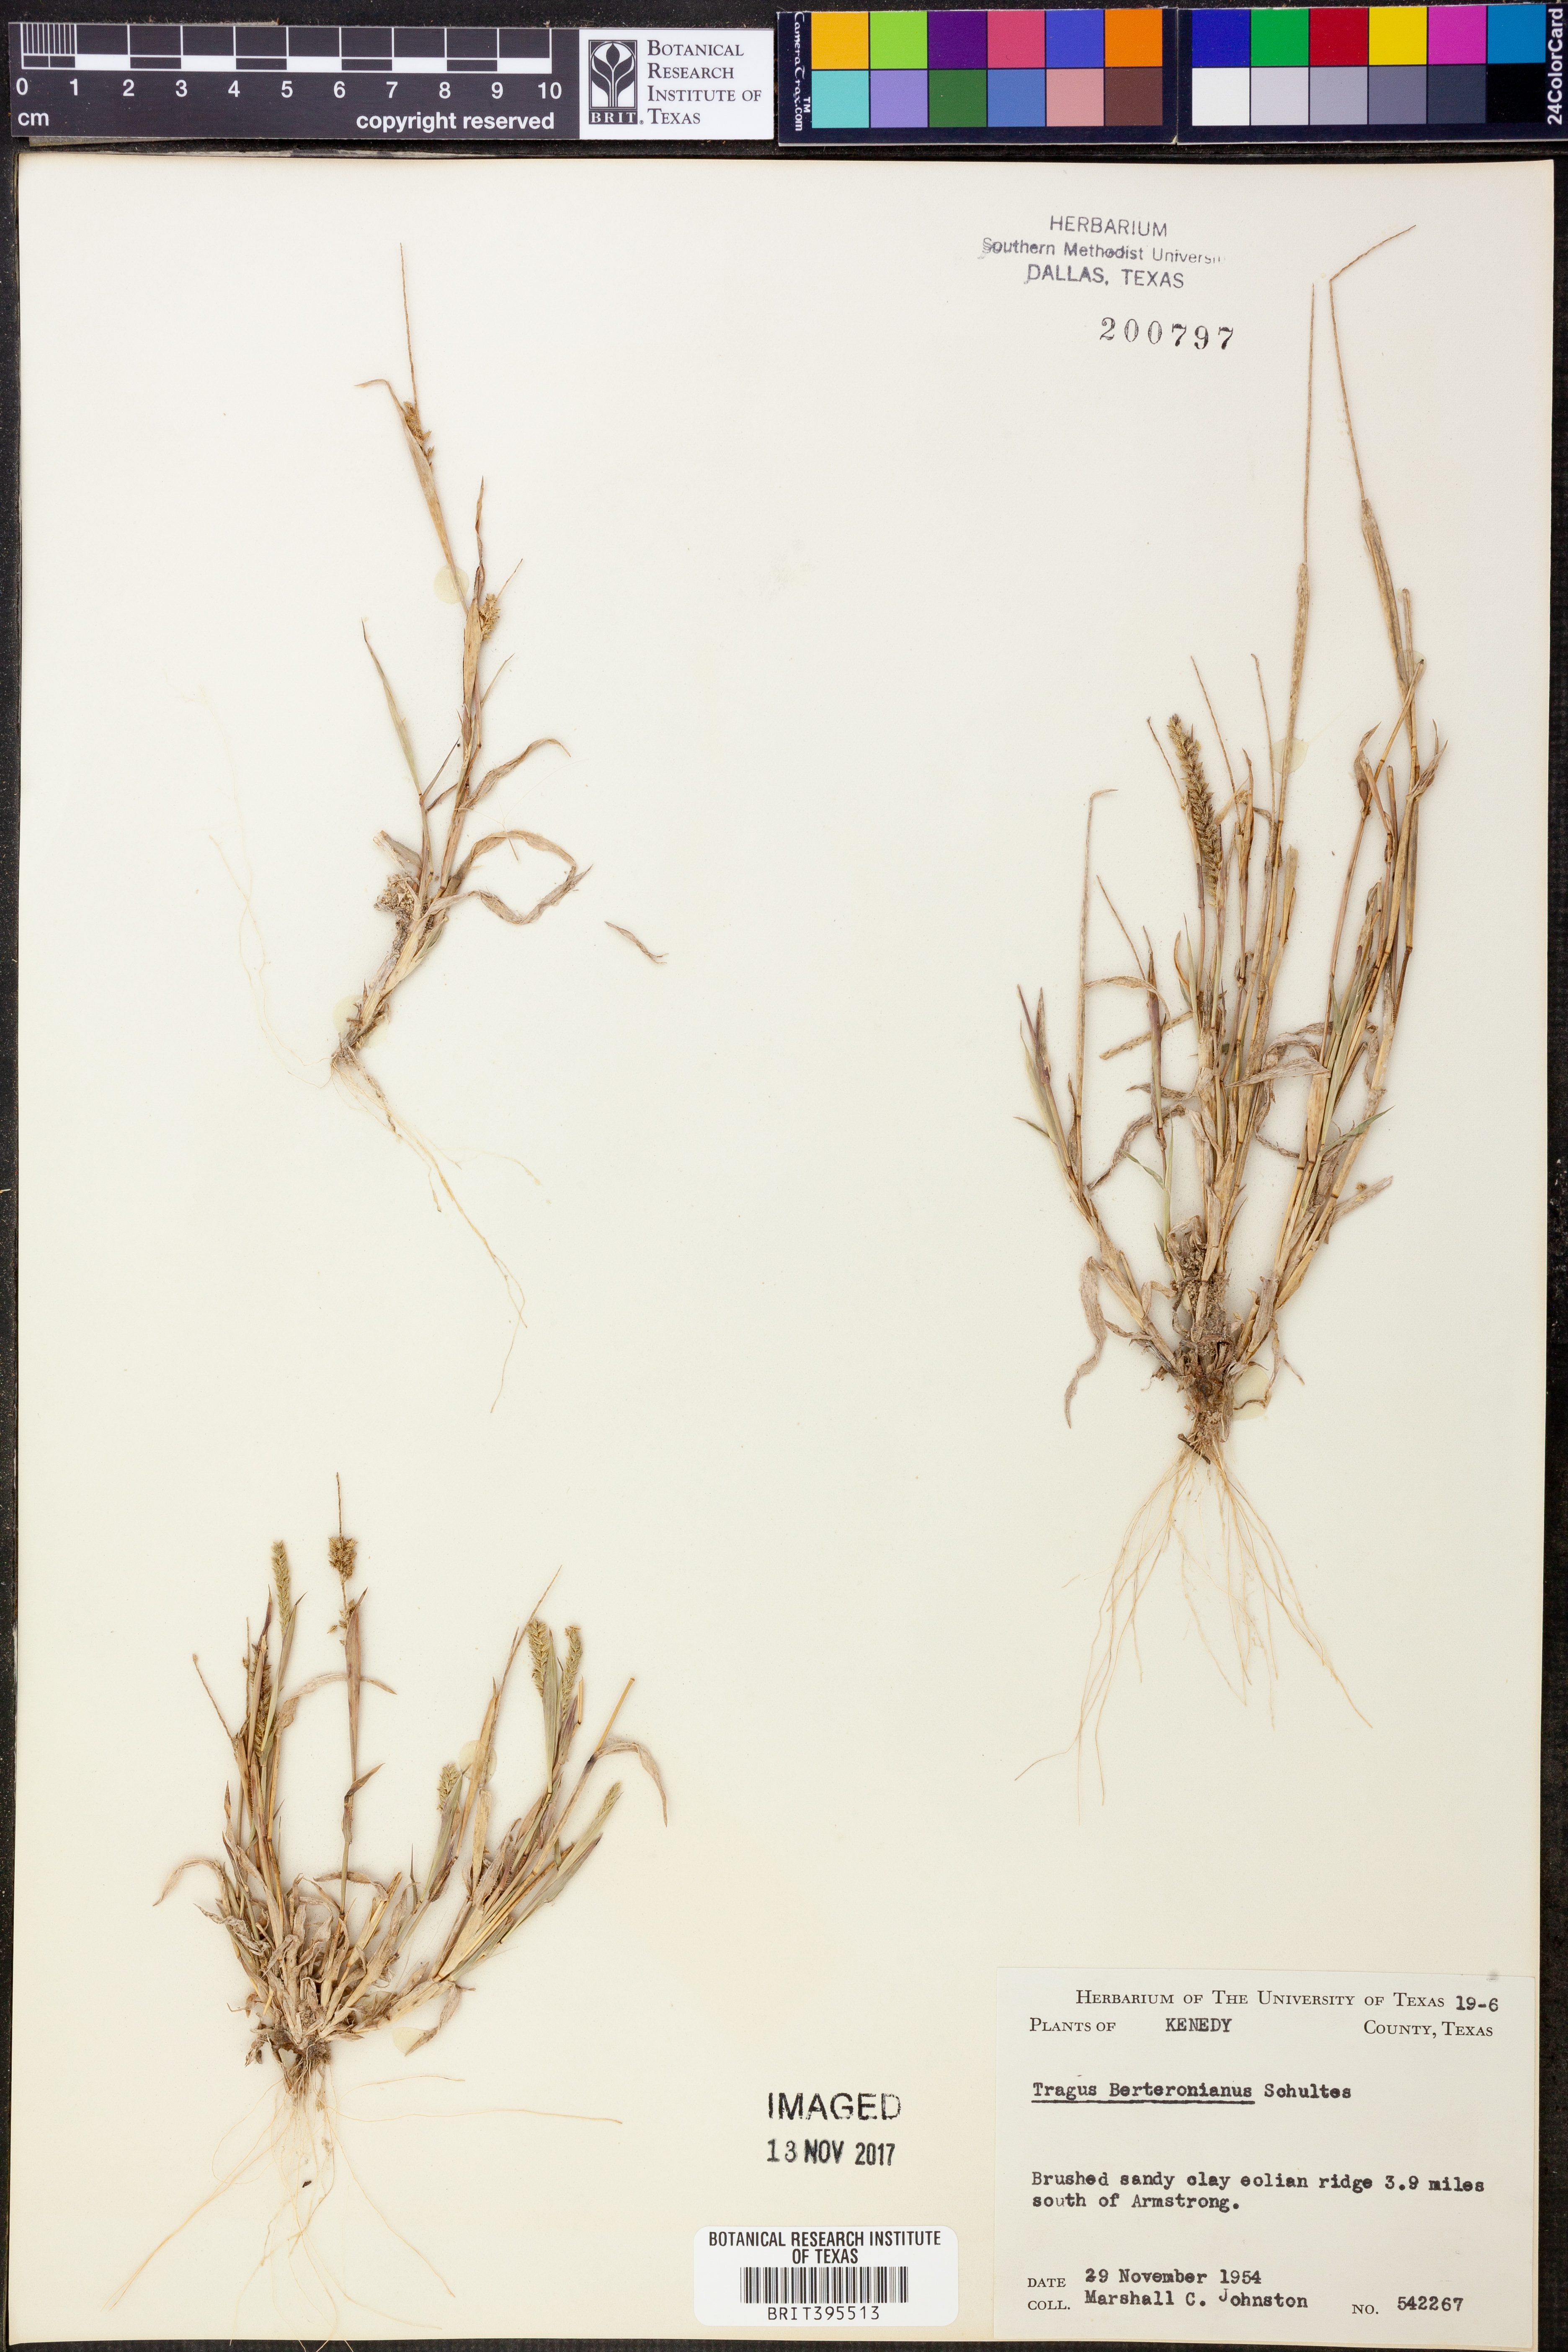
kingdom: Plantae
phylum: Tracheophyta
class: Liliopsida
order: Poales
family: Poaceae
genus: Tragus
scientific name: Tragus berteronianus
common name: African bur-grass
